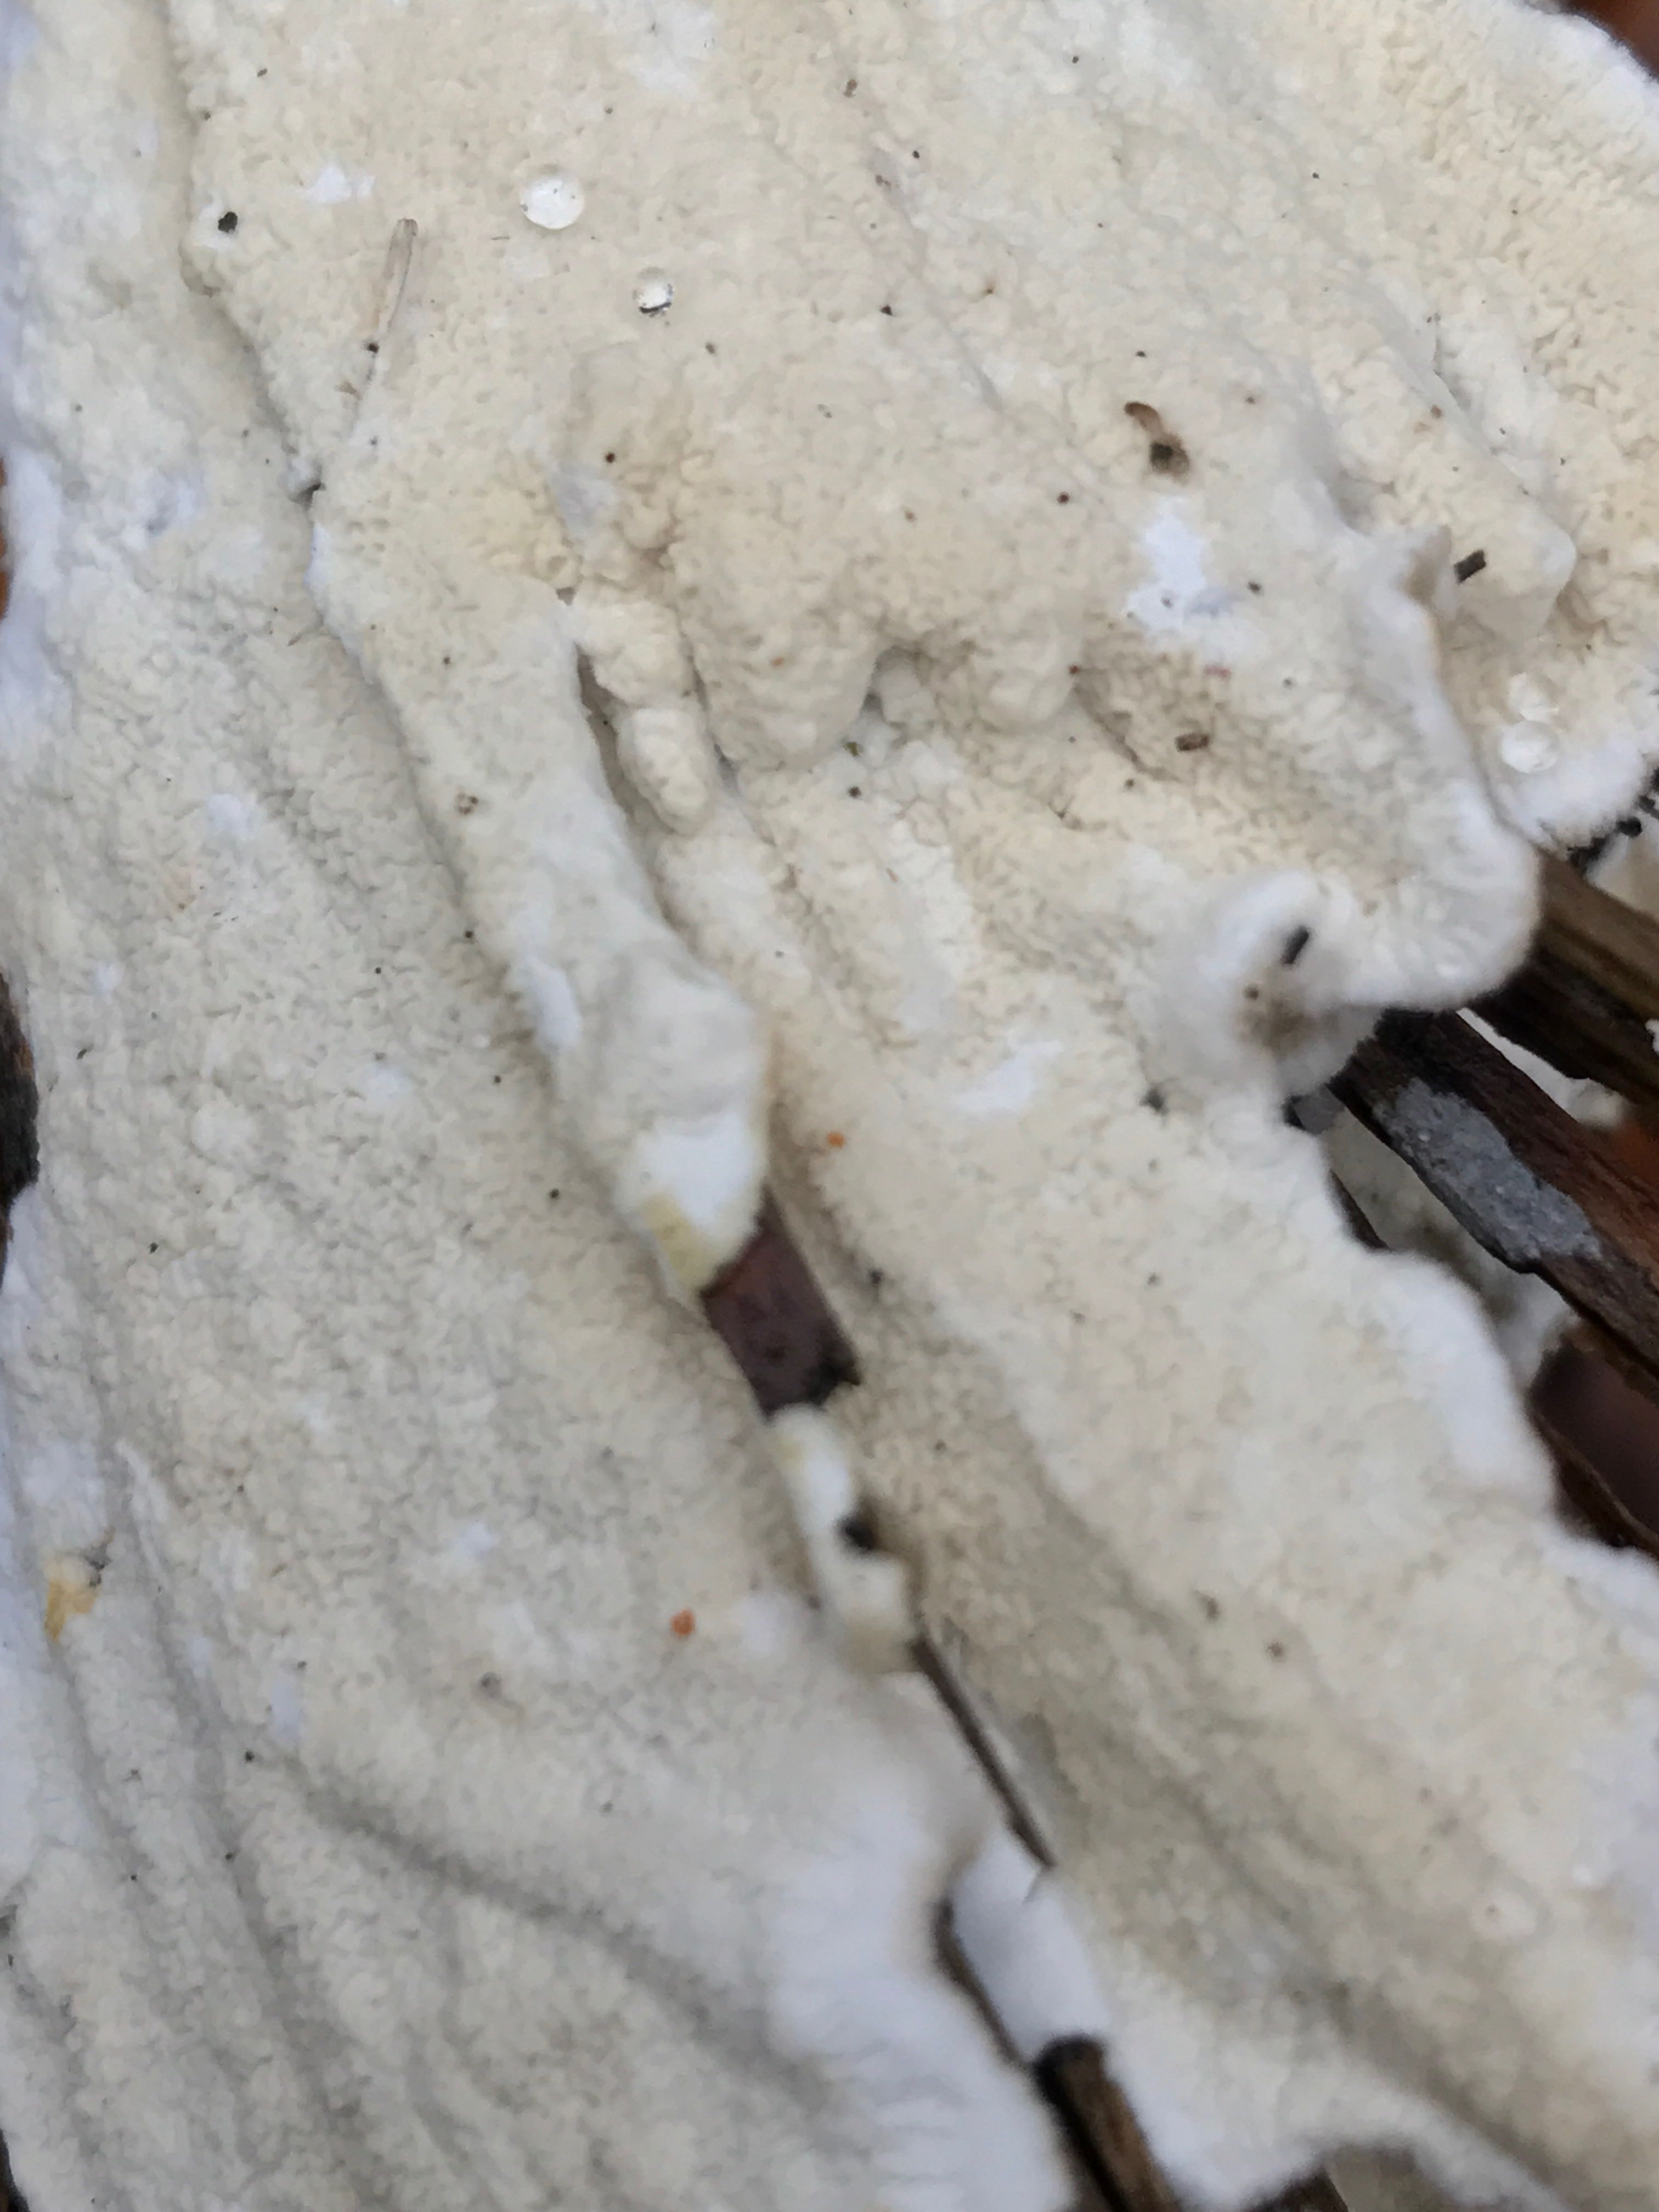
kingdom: Fungi
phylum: Basidiomycota
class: Agaricomycetes
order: Polyporales
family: Irpicaceae
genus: Byssomerulius
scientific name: Byssomerulius corium
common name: læder-åresvamp
